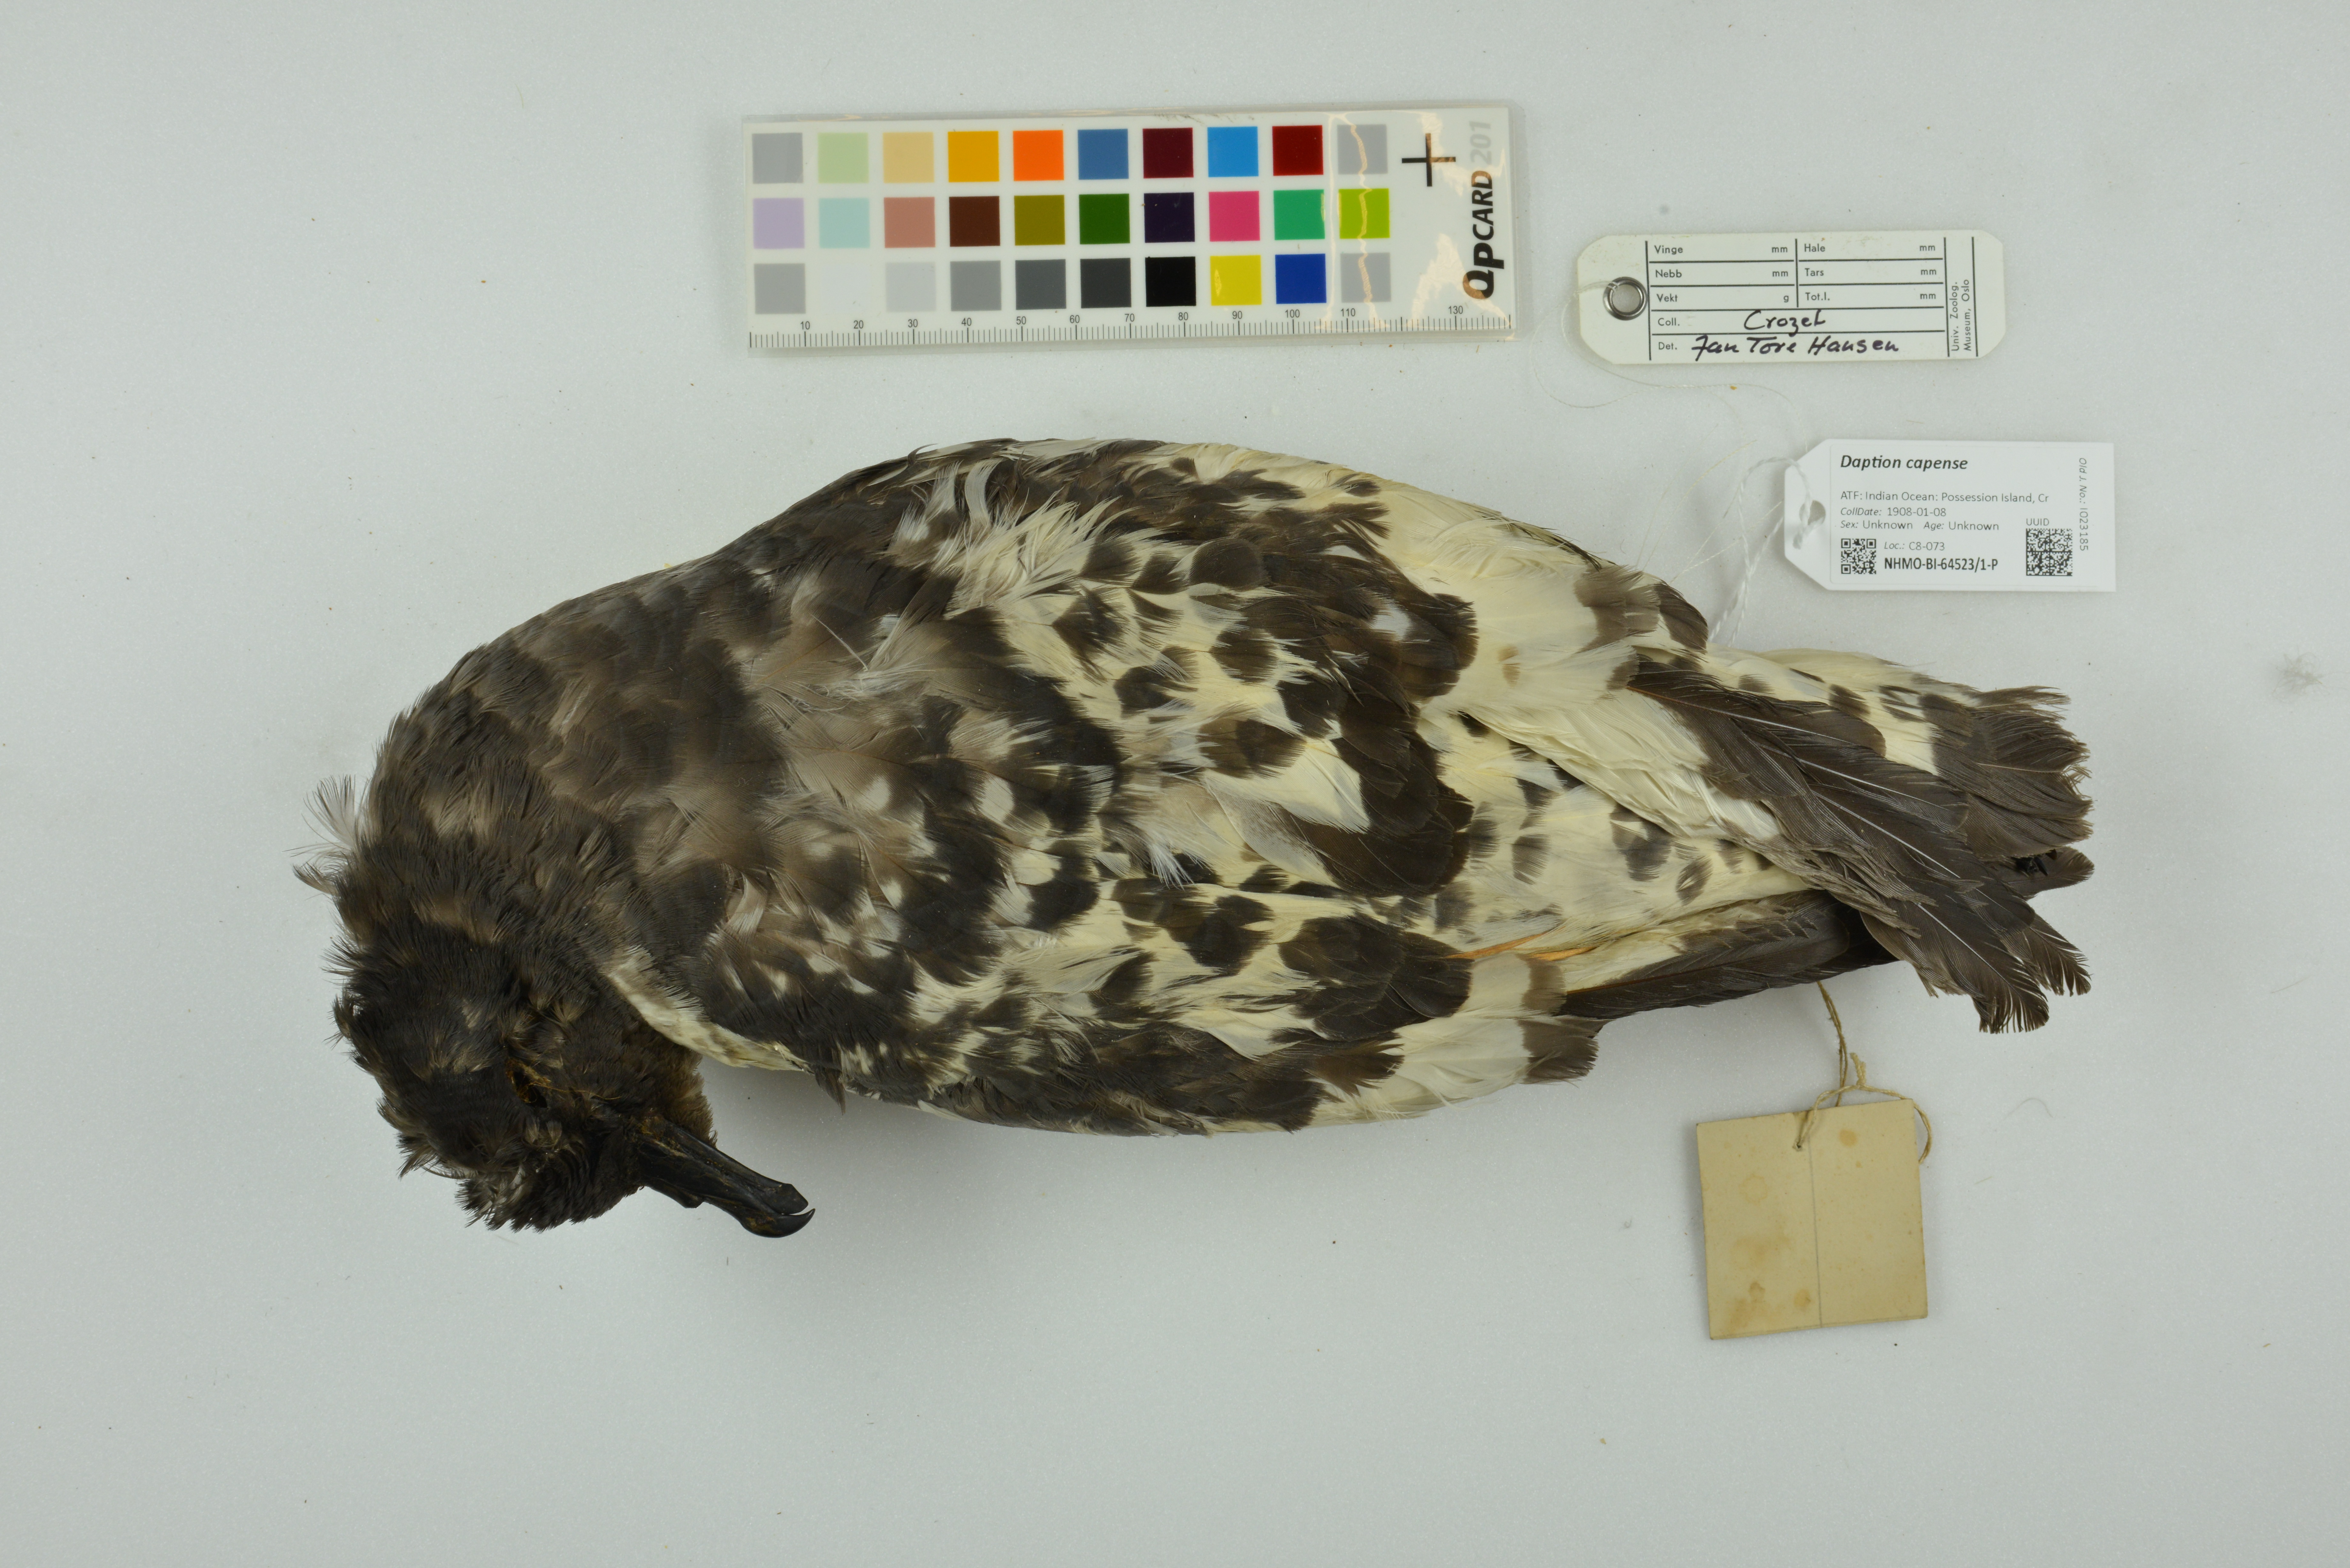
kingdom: Animalia
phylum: Chordata
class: Aves
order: Procellariiformes
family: Procellariidae
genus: Daption
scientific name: Daption capense
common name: Cape petrel
